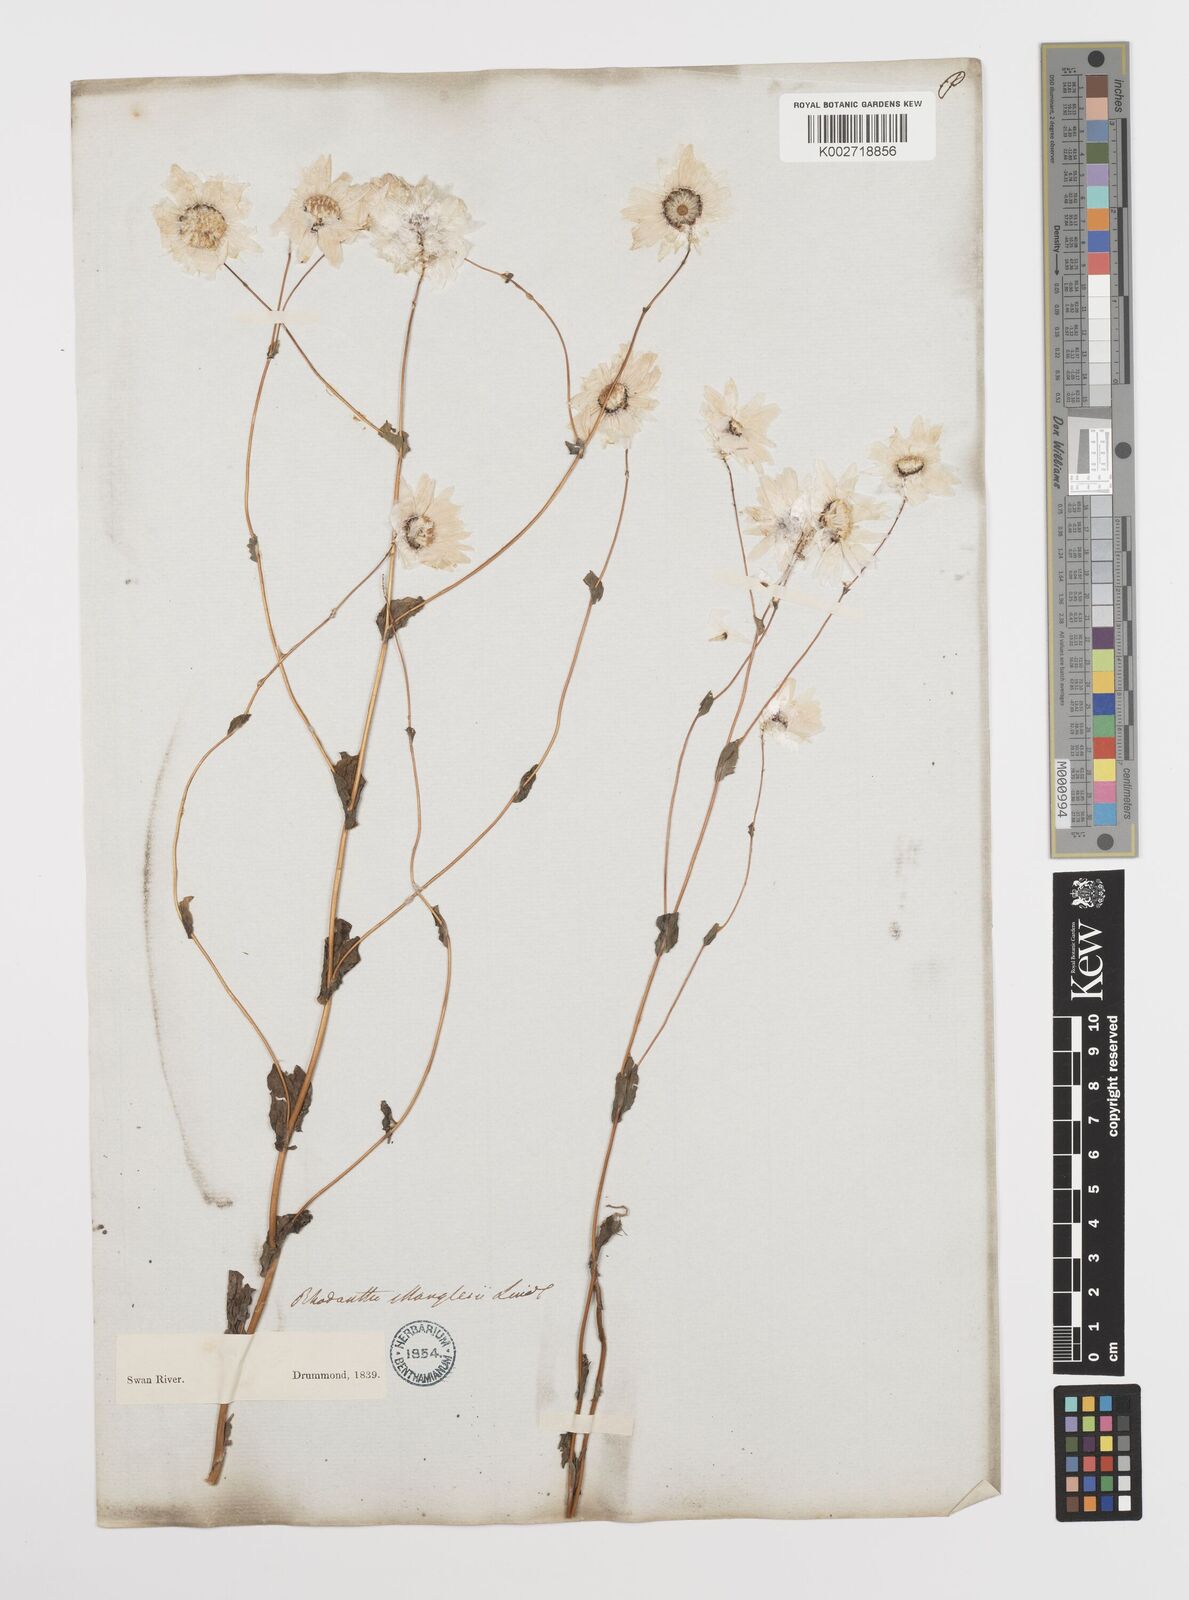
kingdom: Plantae
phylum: Tracheophyta
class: Magnoliopsida
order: Asterales
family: Asteraceae
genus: Rhodanthe
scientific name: Rhodanthe manglesii
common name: Pink sunray
